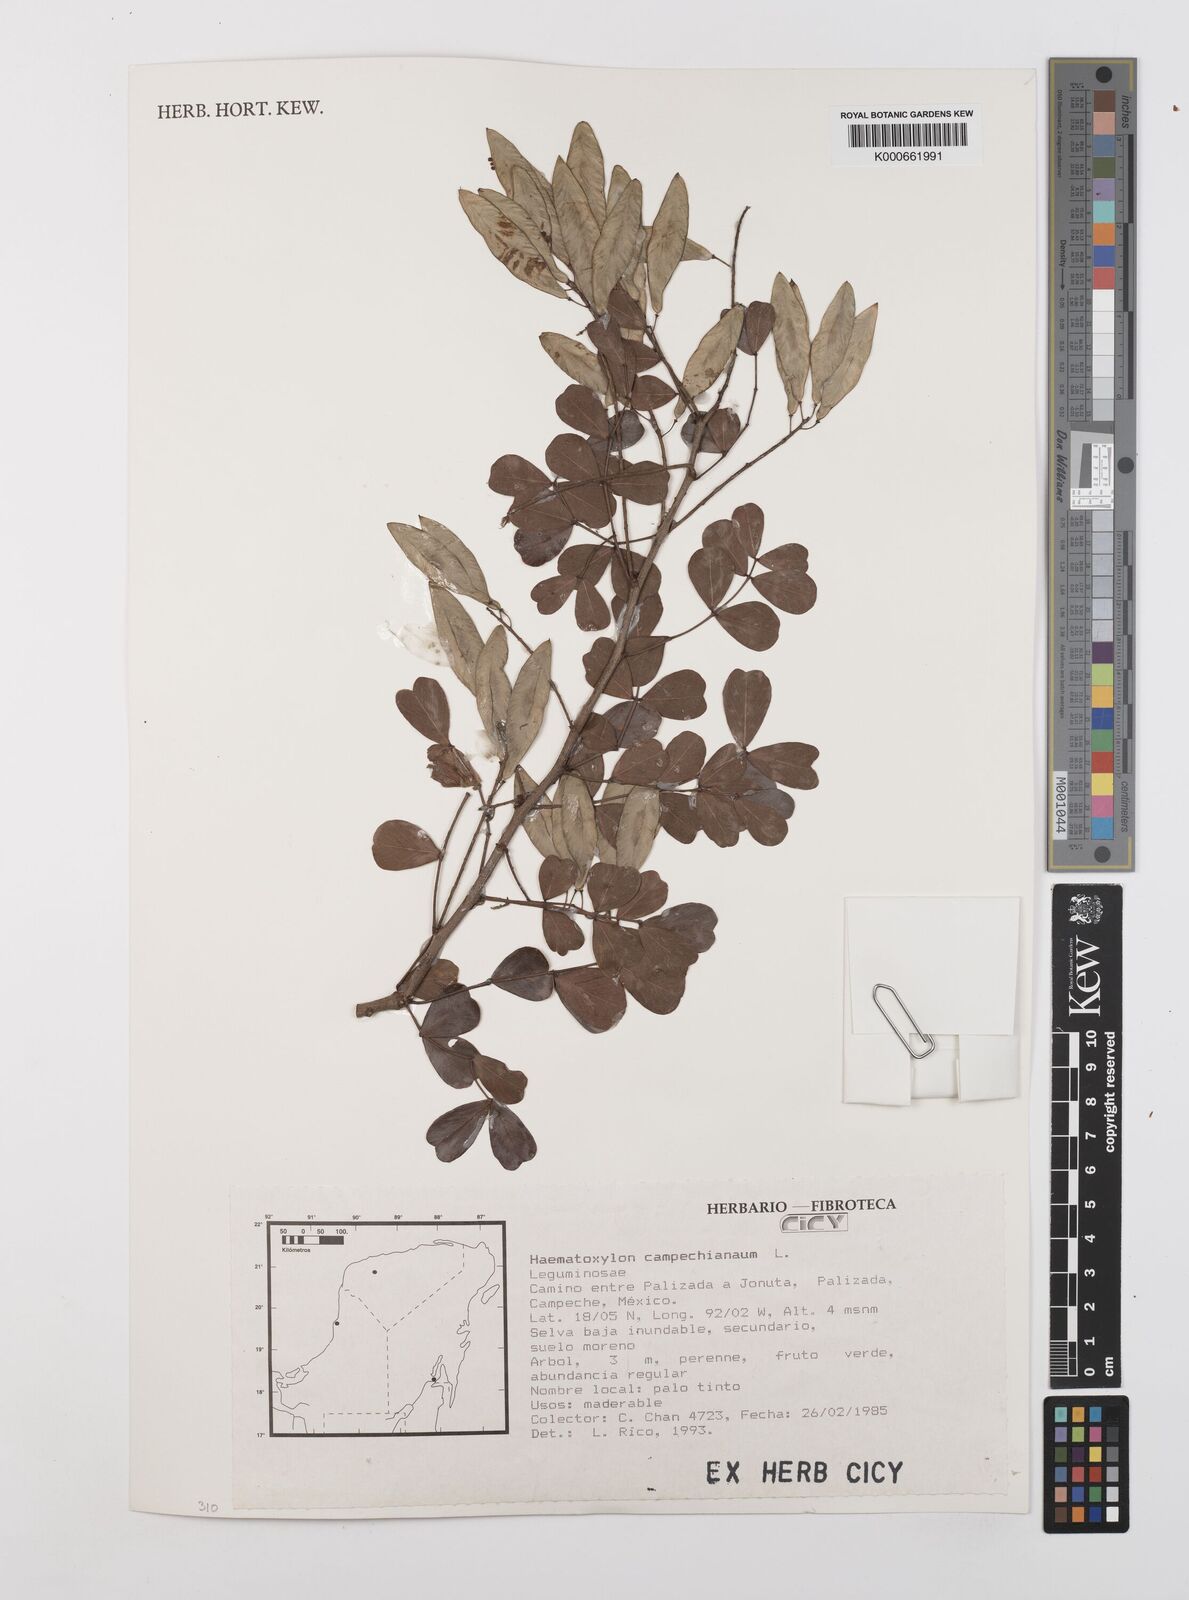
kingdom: Plantae
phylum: Tracheophyta
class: Magnoliopsida
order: Fabales
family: Fabaceae
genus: Haematoxylum
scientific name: Haematoxylum
